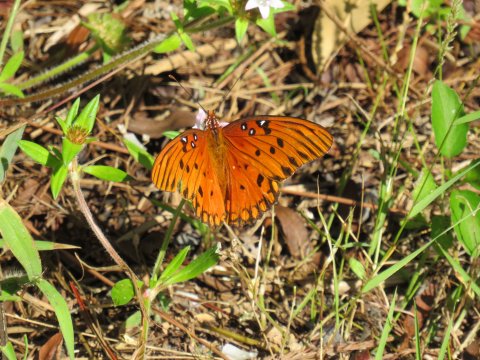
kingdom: Animalia
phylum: Arthropoda
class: Insecta
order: Lepidoptera
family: Nymphalidae
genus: Dione
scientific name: Dione vanillae
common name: Gulf Fritillary
